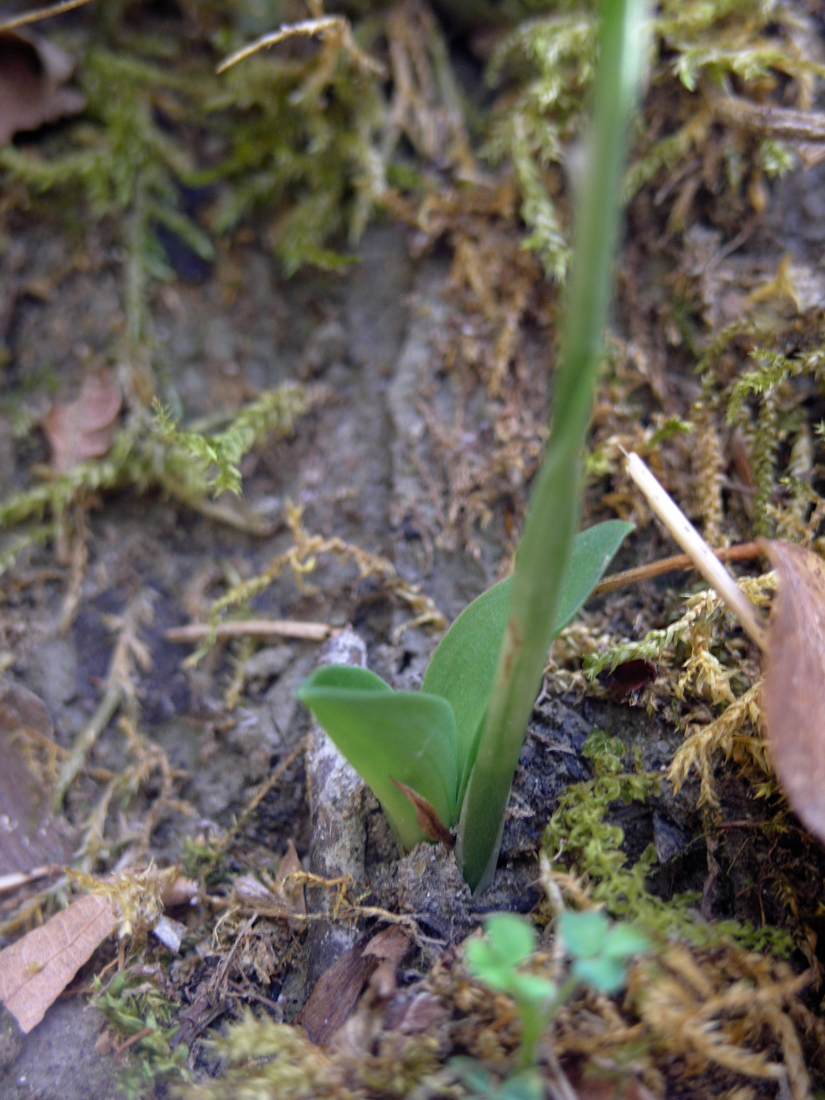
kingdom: Plantae
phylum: Tracheophyta
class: Liliopsida
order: Asparagales
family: Orchidaceae
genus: Spiranthes
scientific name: Spiranthes spiralis
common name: Autumn lady's-tresses
